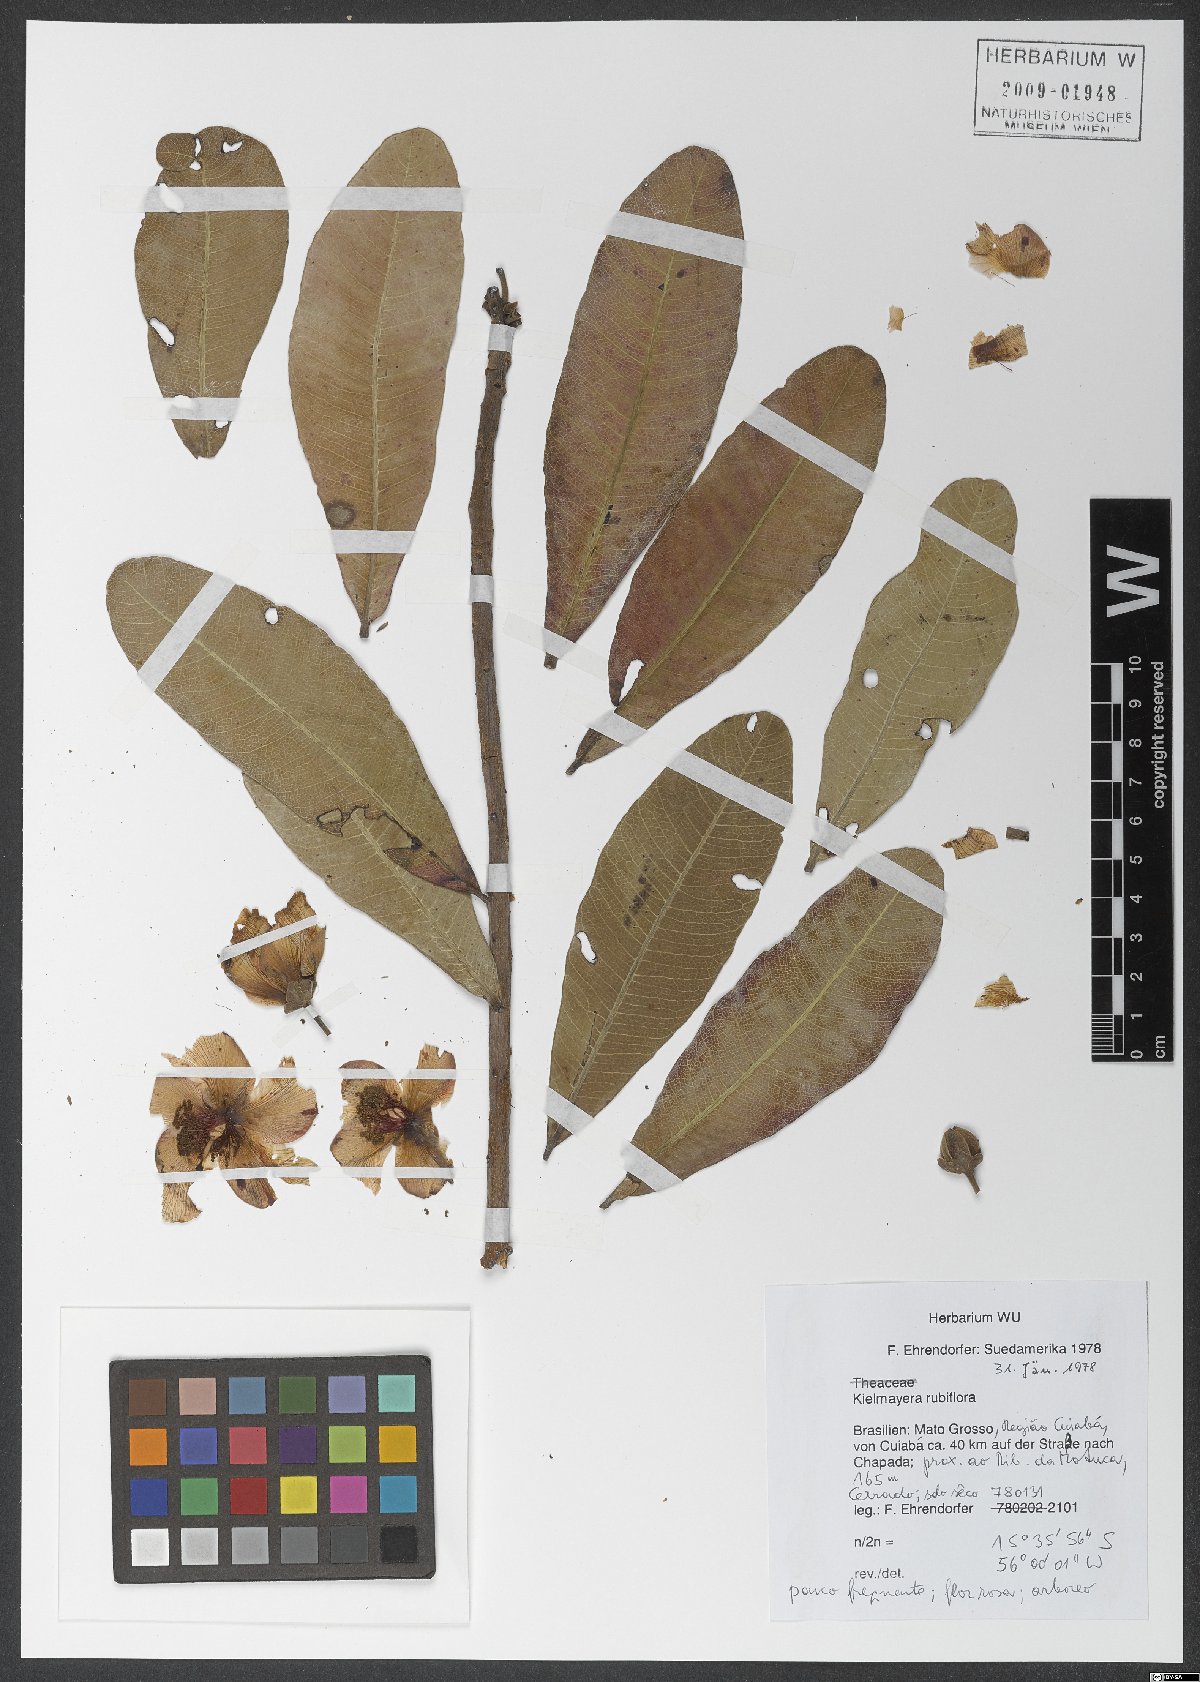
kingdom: Plantae
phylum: Tracheophyta
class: Magnoliopsida
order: Malpighiales
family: Calophyllaceae
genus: Kielmeyera
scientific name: Kielmeyera rubriflora
